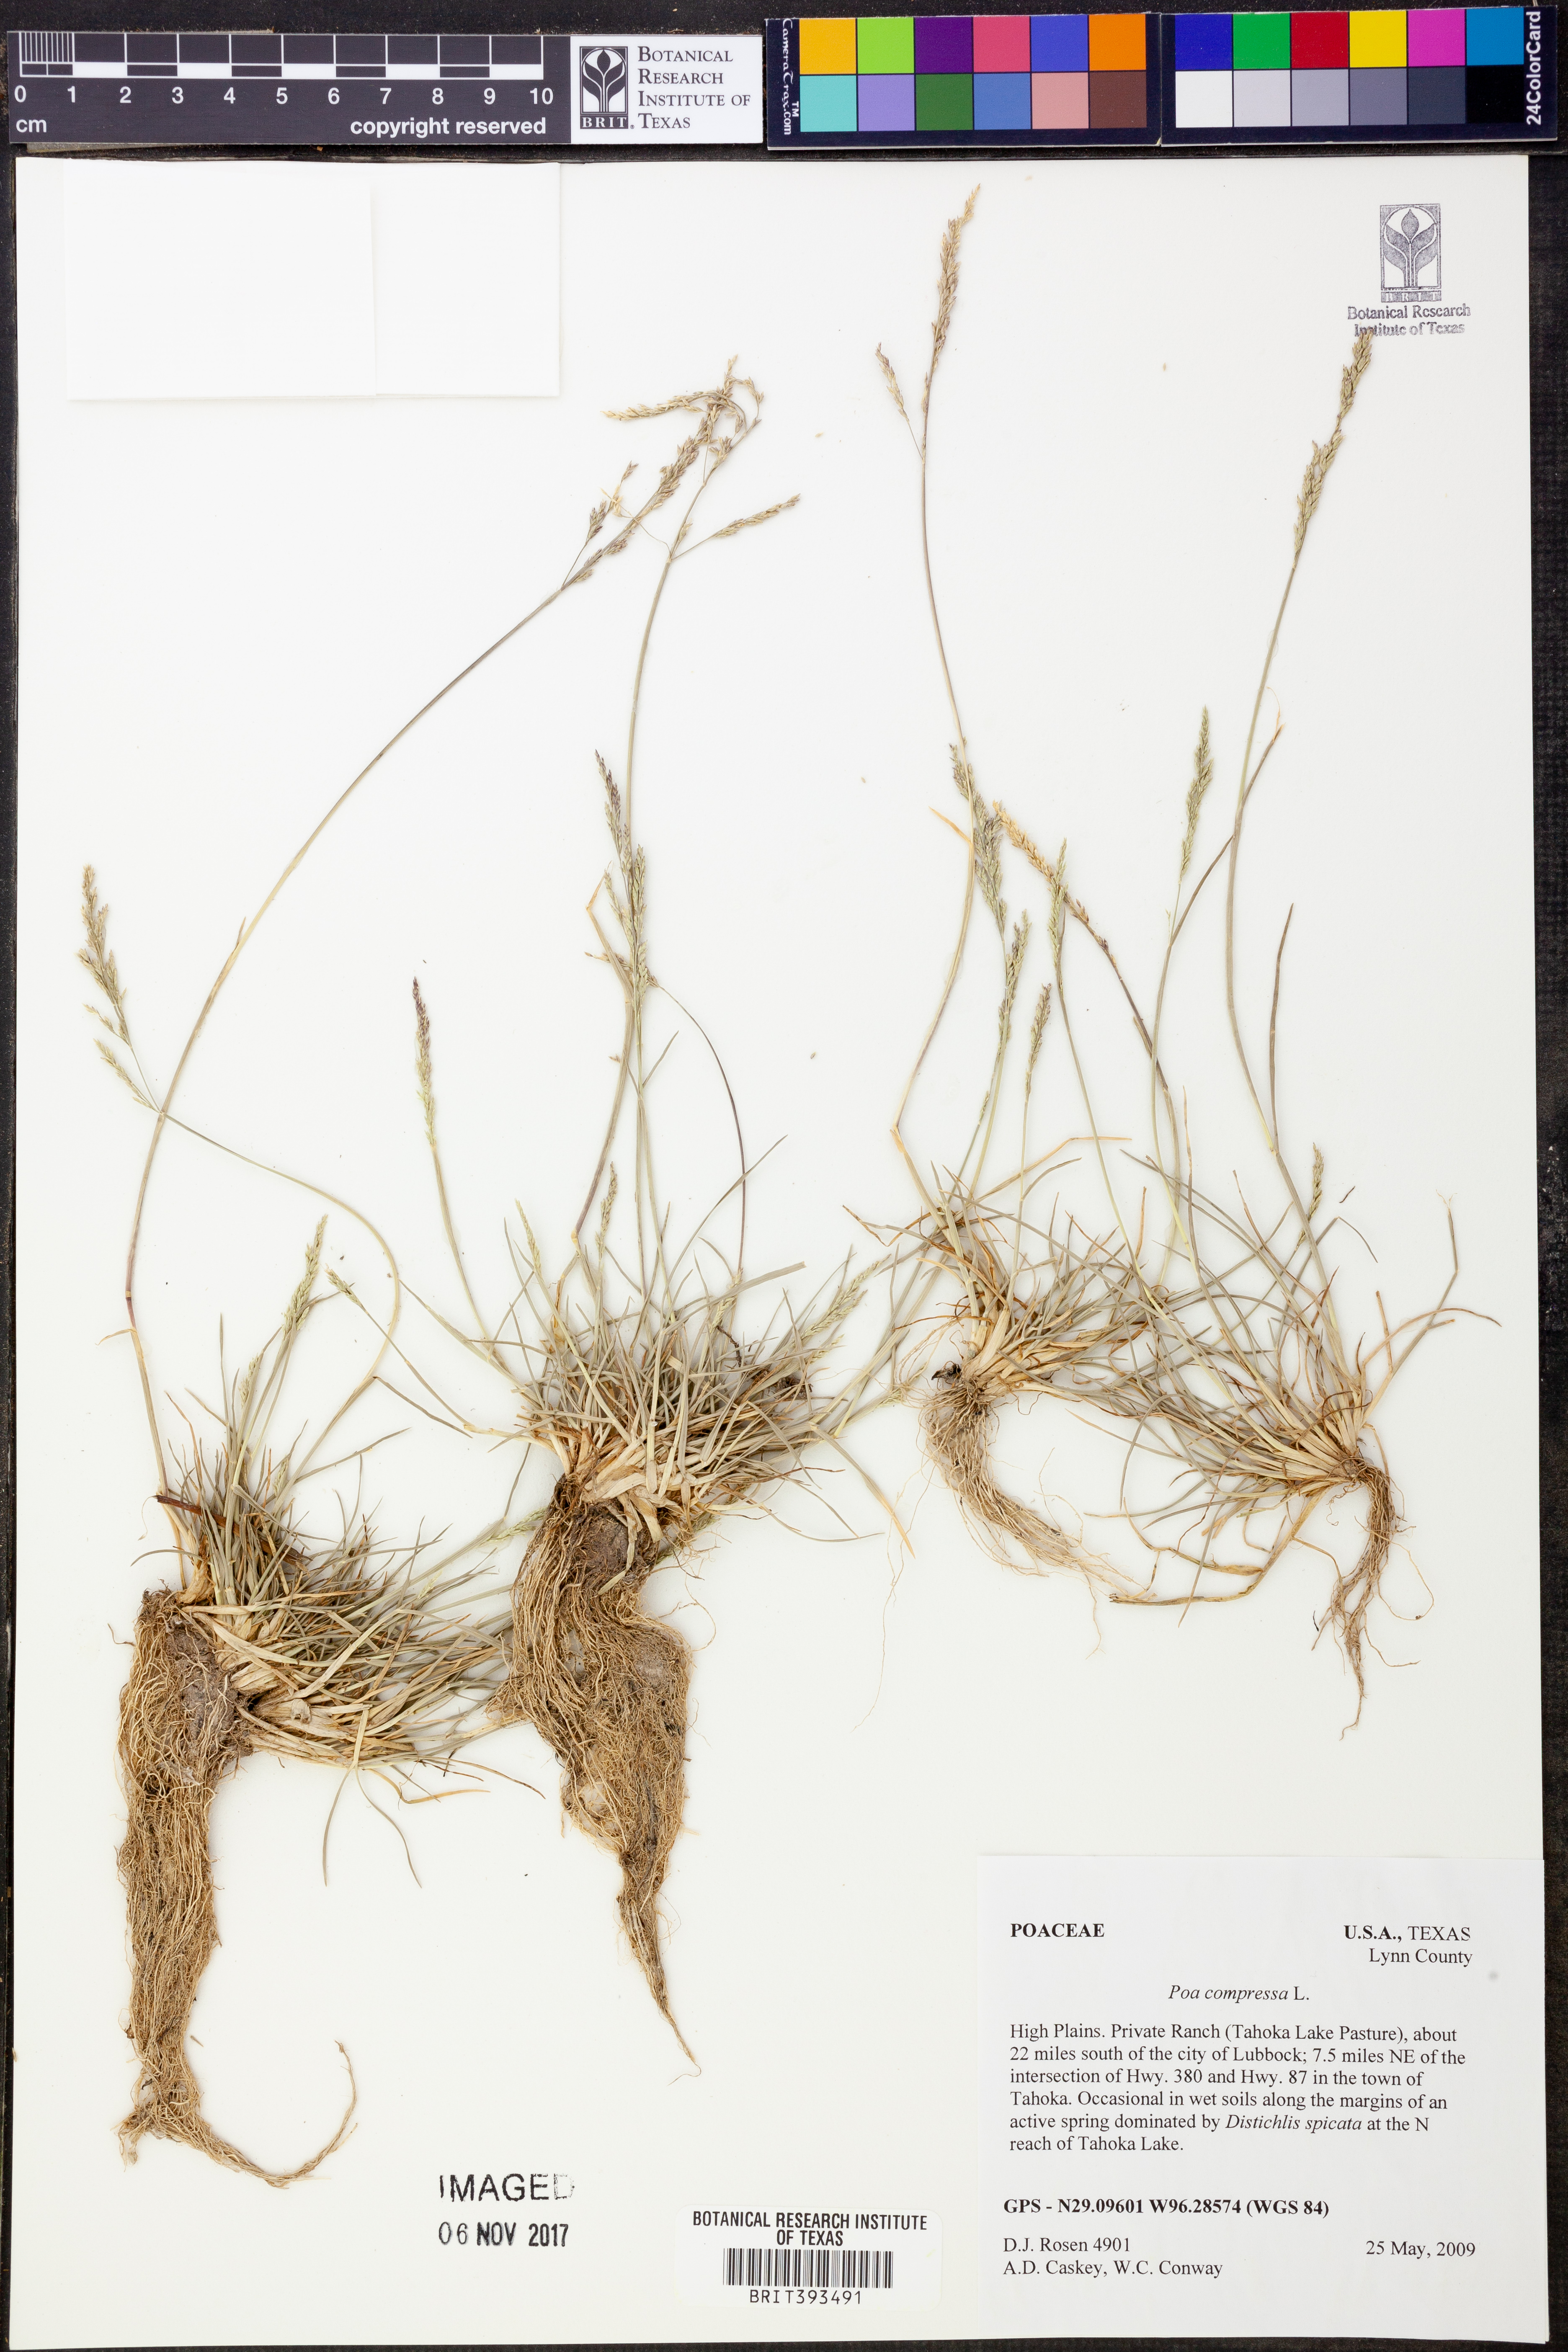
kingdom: Plantae
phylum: Tracheophyta
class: Liliopsida
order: Poales
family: Poaceae
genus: Poa
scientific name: Poa compressa
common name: Canada bluegrass
